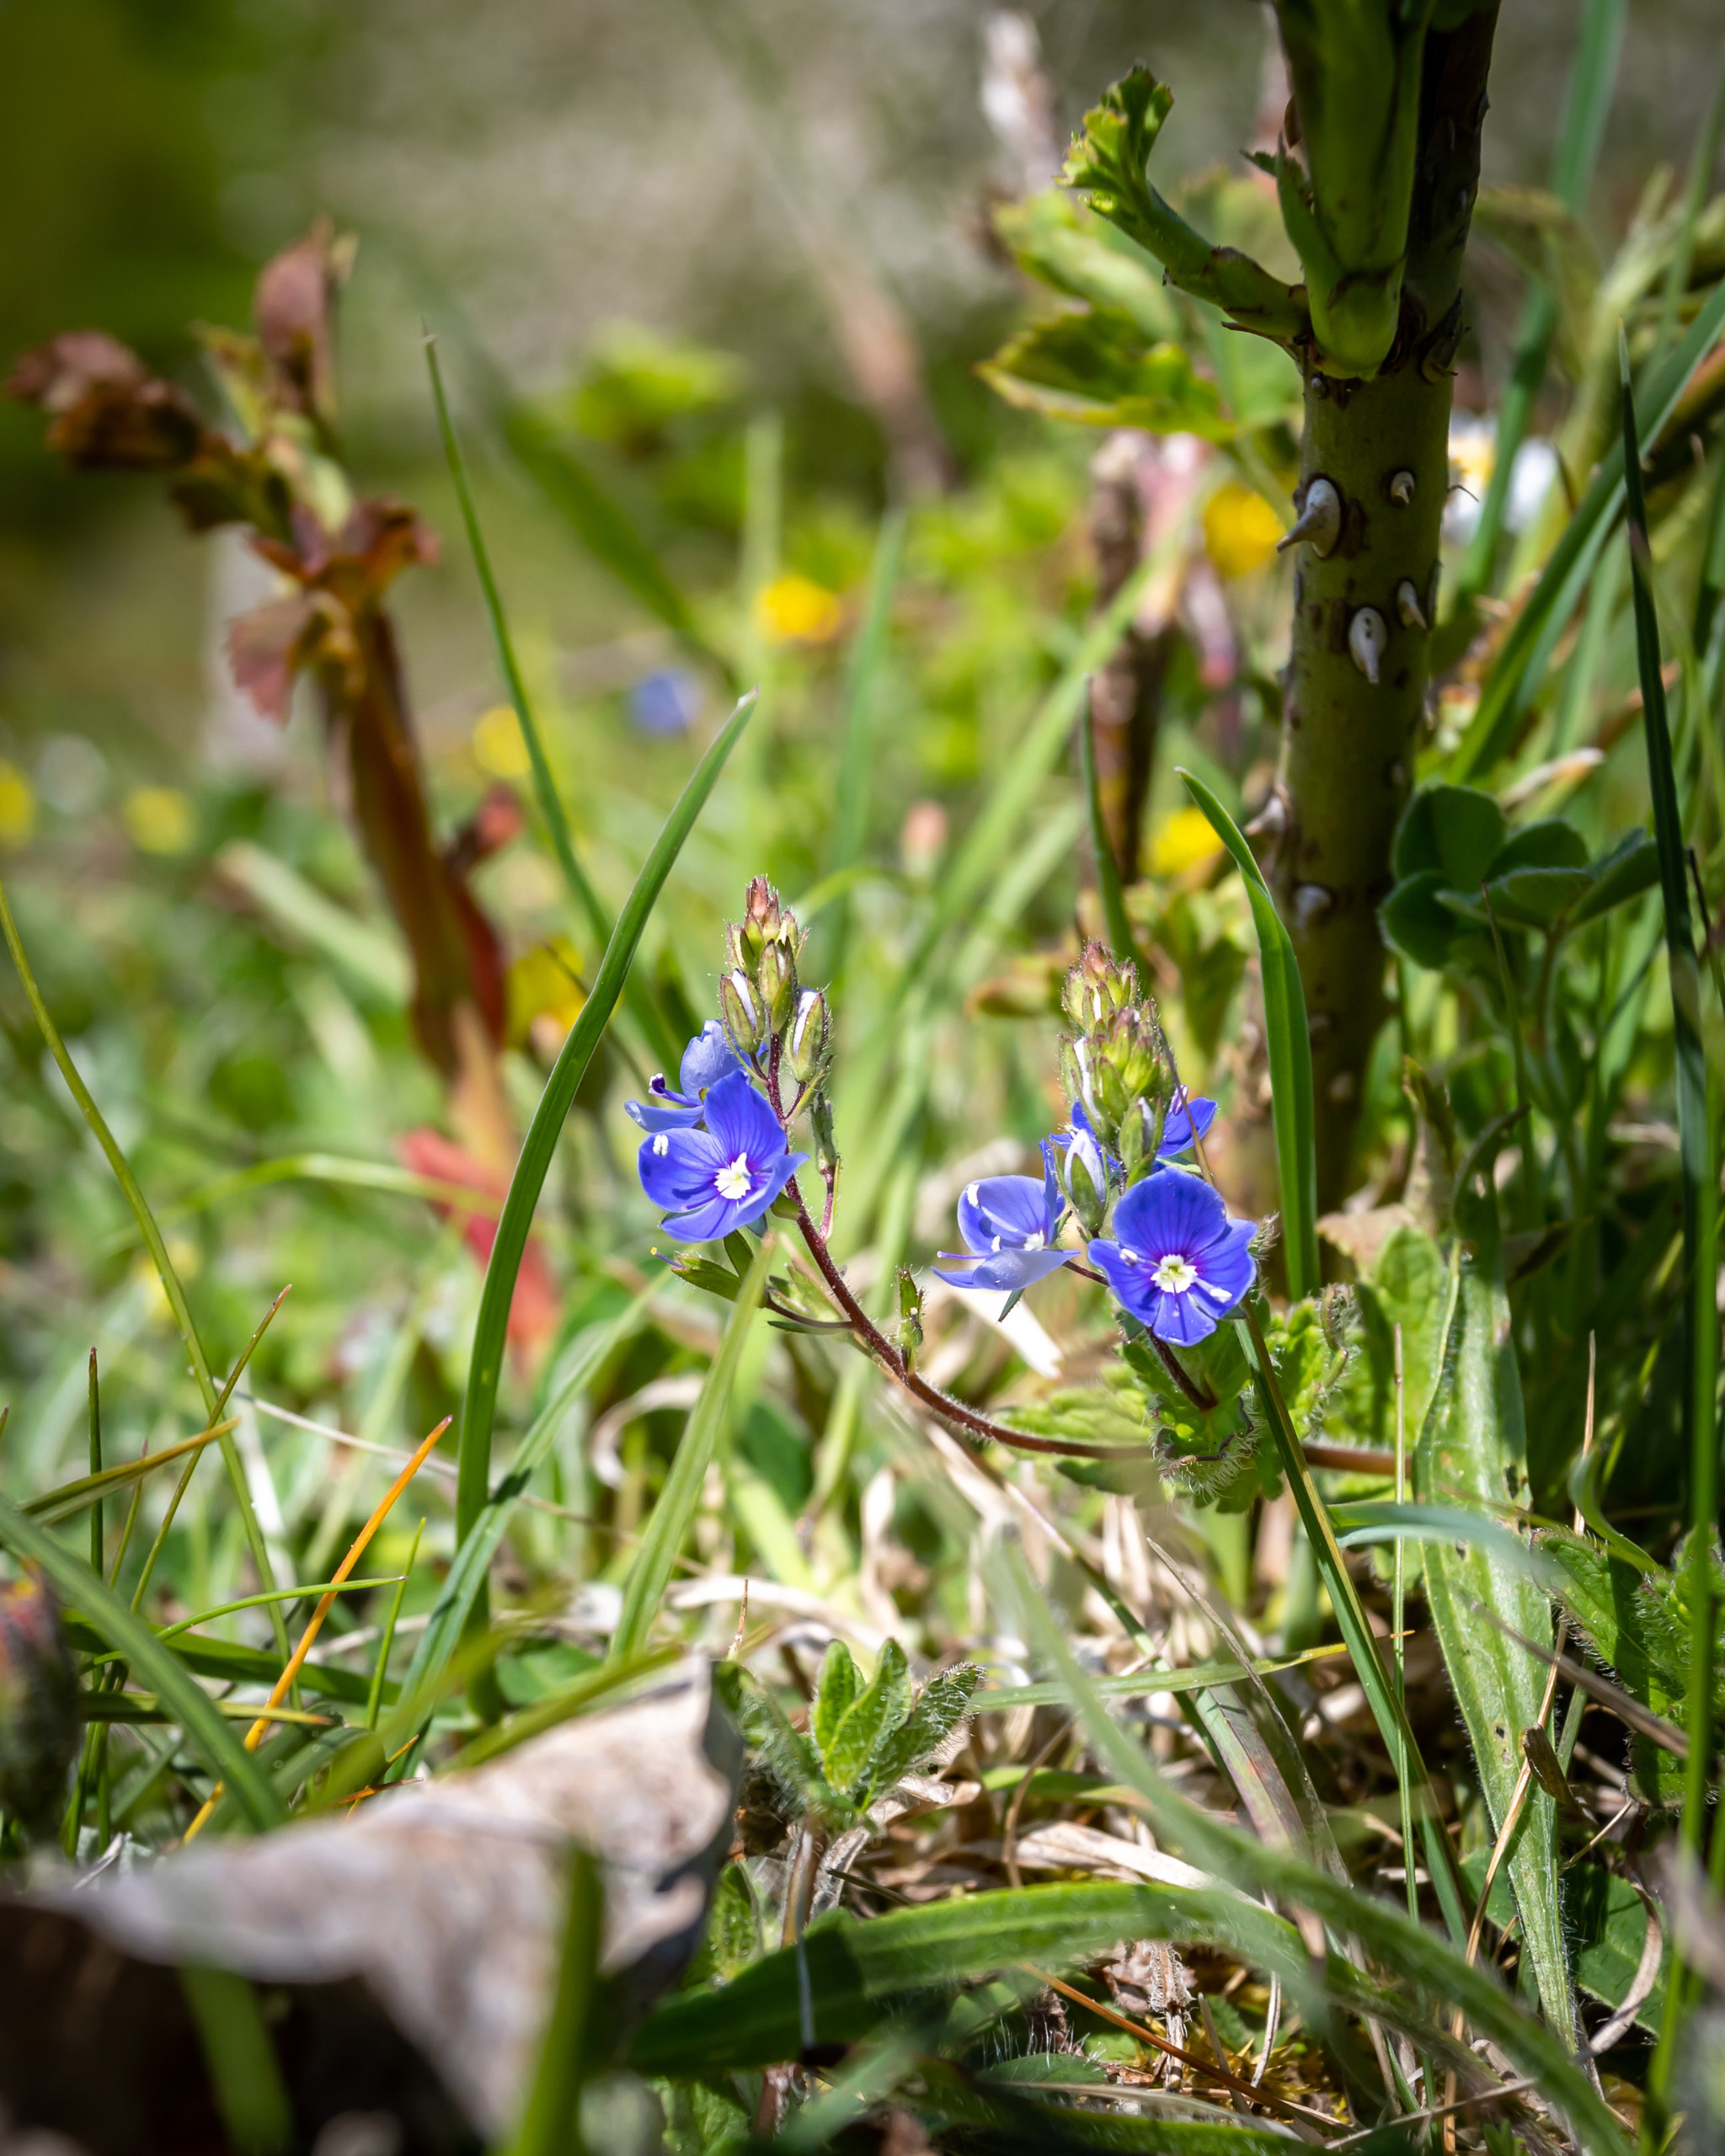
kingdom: Plantae
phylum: Tracheophyta
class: Magnoliopsida
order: Lamiales
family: Plantaginaceae
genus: Veronica
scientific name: Veronica chamaedrys
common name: Tveskægget ærenpris
